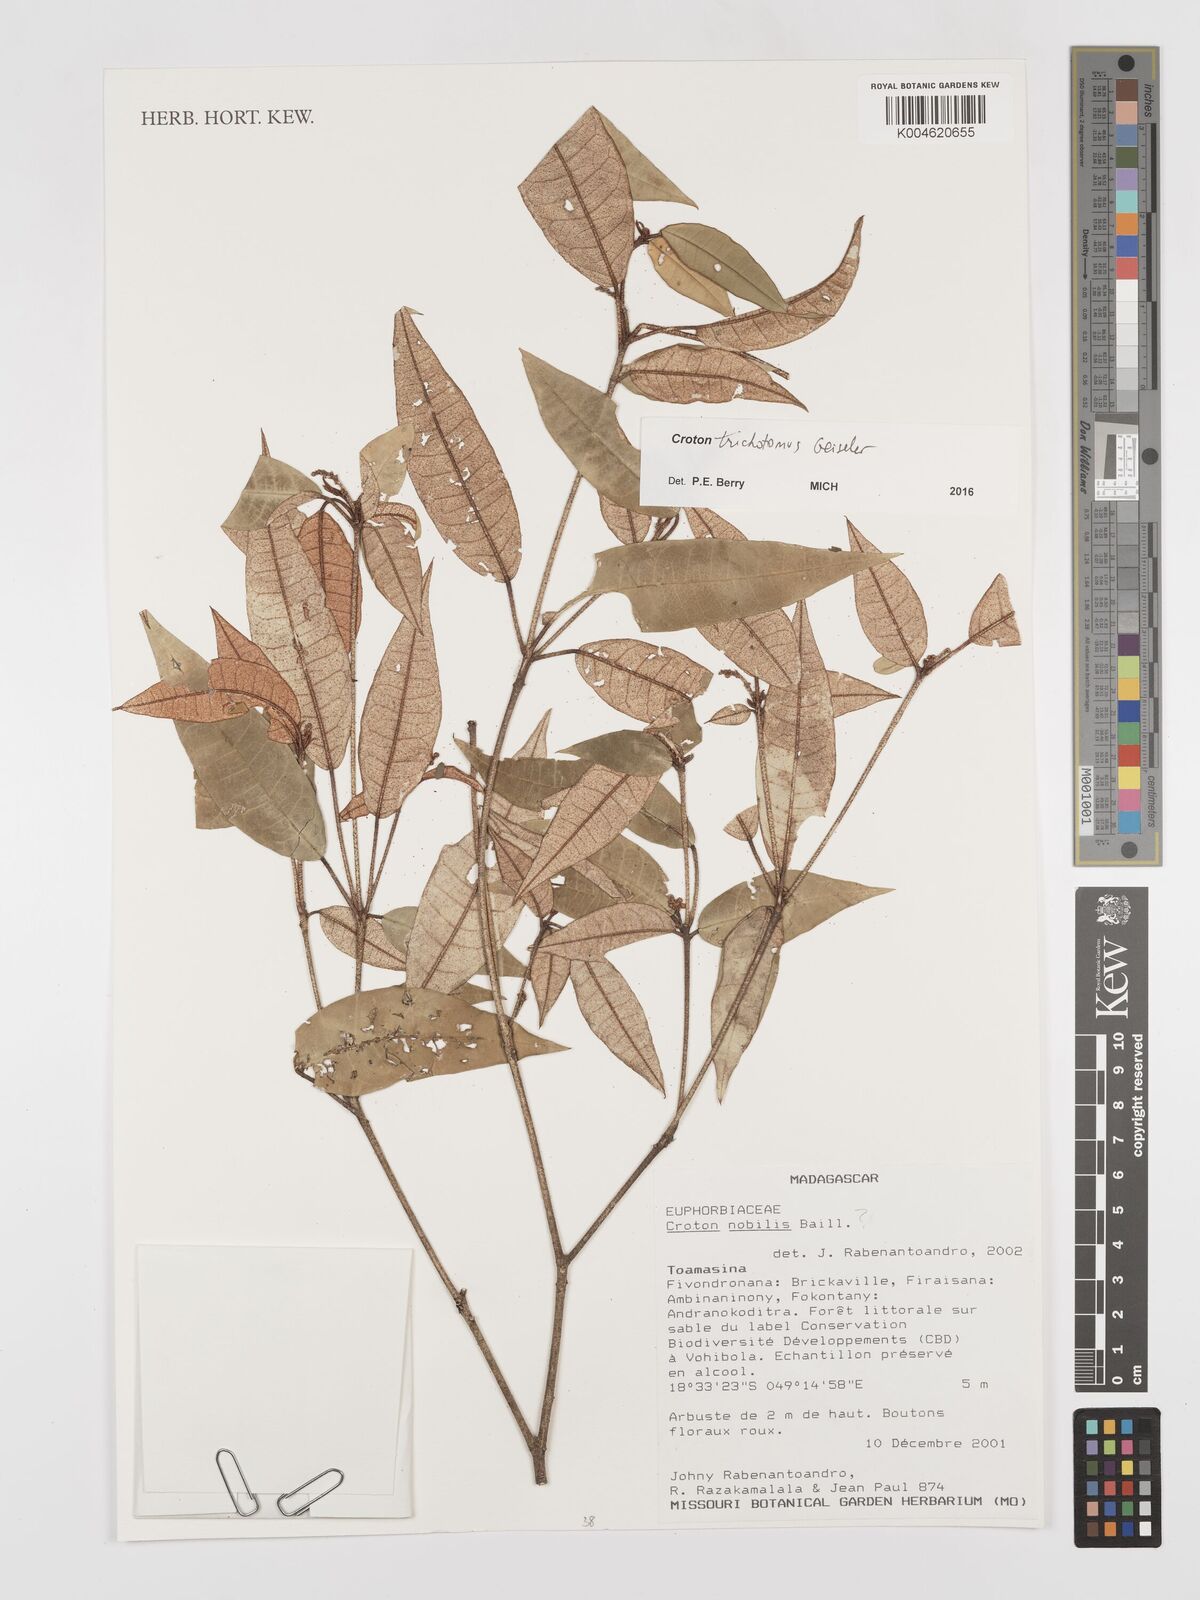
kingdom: Plantae
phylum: Tracheophyta
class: Magnoliopsida
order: Malpighiales
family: Euphorbiaceae
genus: Croton
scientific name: Croton trichotomus
